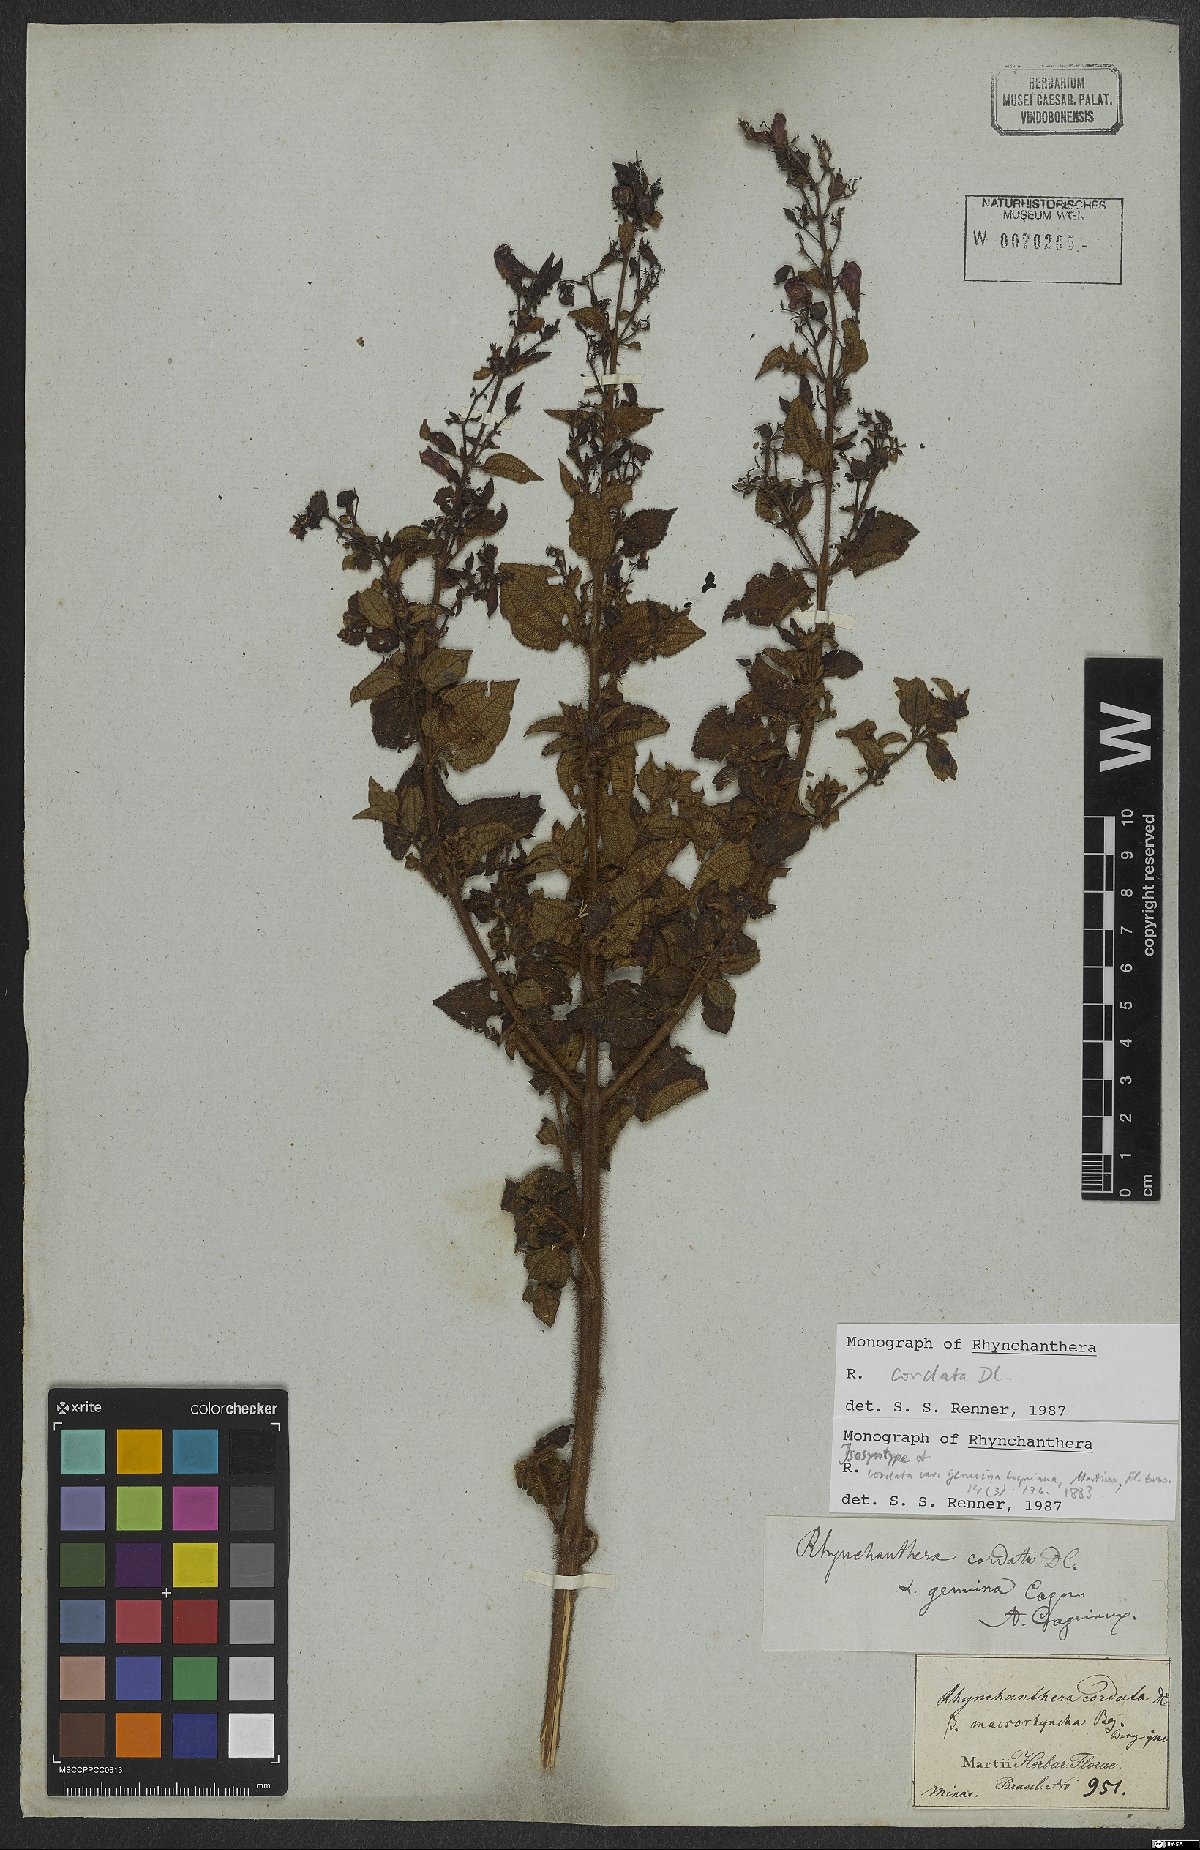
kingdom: Plantae
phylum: Tracheophyta
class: Magnoliopsida
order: Myrtales
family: Melastomataceae
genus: Rhynchanthera
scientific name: Rhynchanthera cordata
